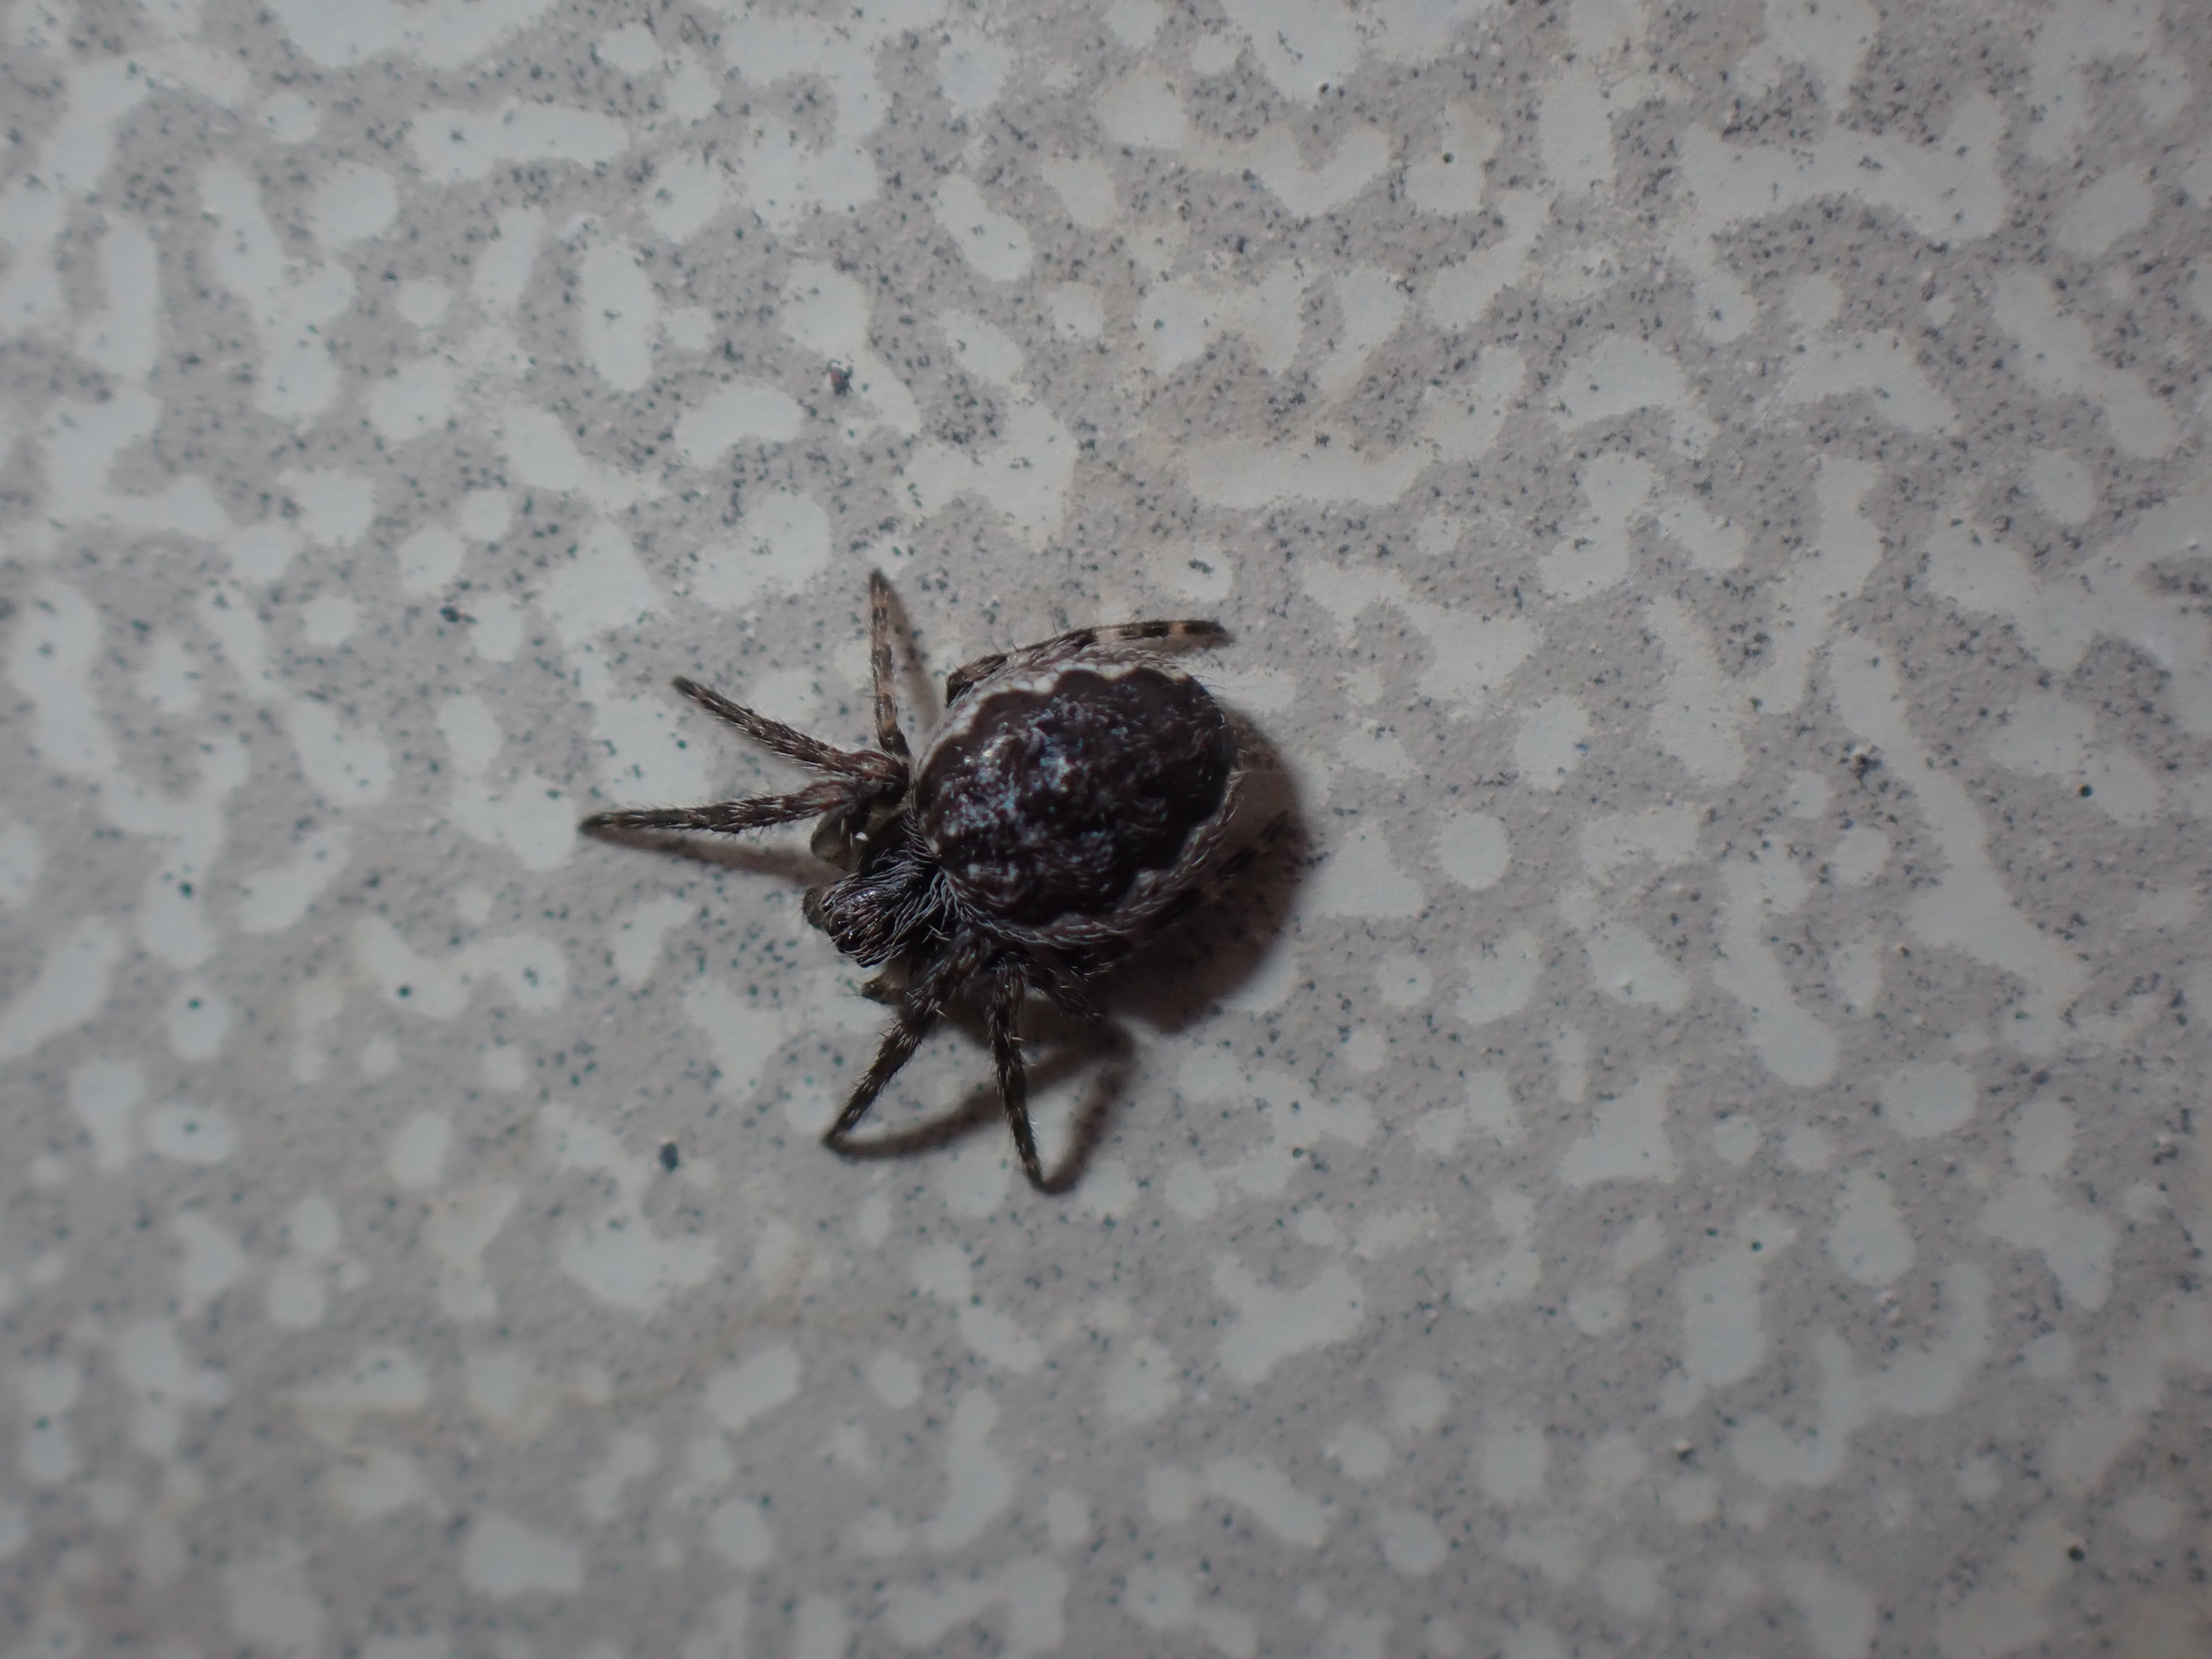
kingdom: Animalia
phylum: Arthropoda
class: Arachnida
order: Araneae
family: Araneidae
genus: Nuctenea
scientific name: Nuctenea umbratica
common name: Flad hjulspinder
